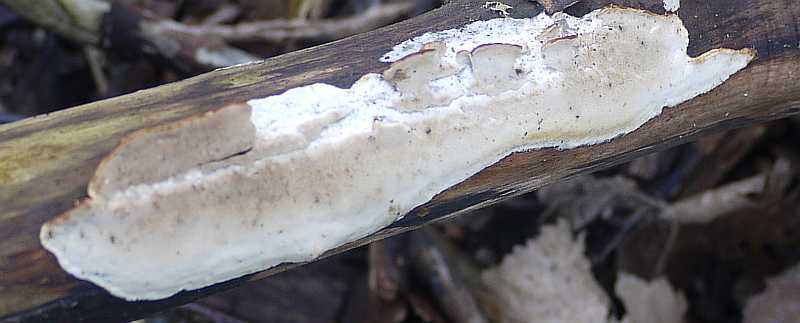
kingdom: Fungi
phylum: Basidiomycota
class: Agaricomycetes
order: Polyporales
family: Incrustoporiaceae
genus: Skeletocutis
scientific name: Skeletocutis nemoralis
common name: stor krystalporesvamp
